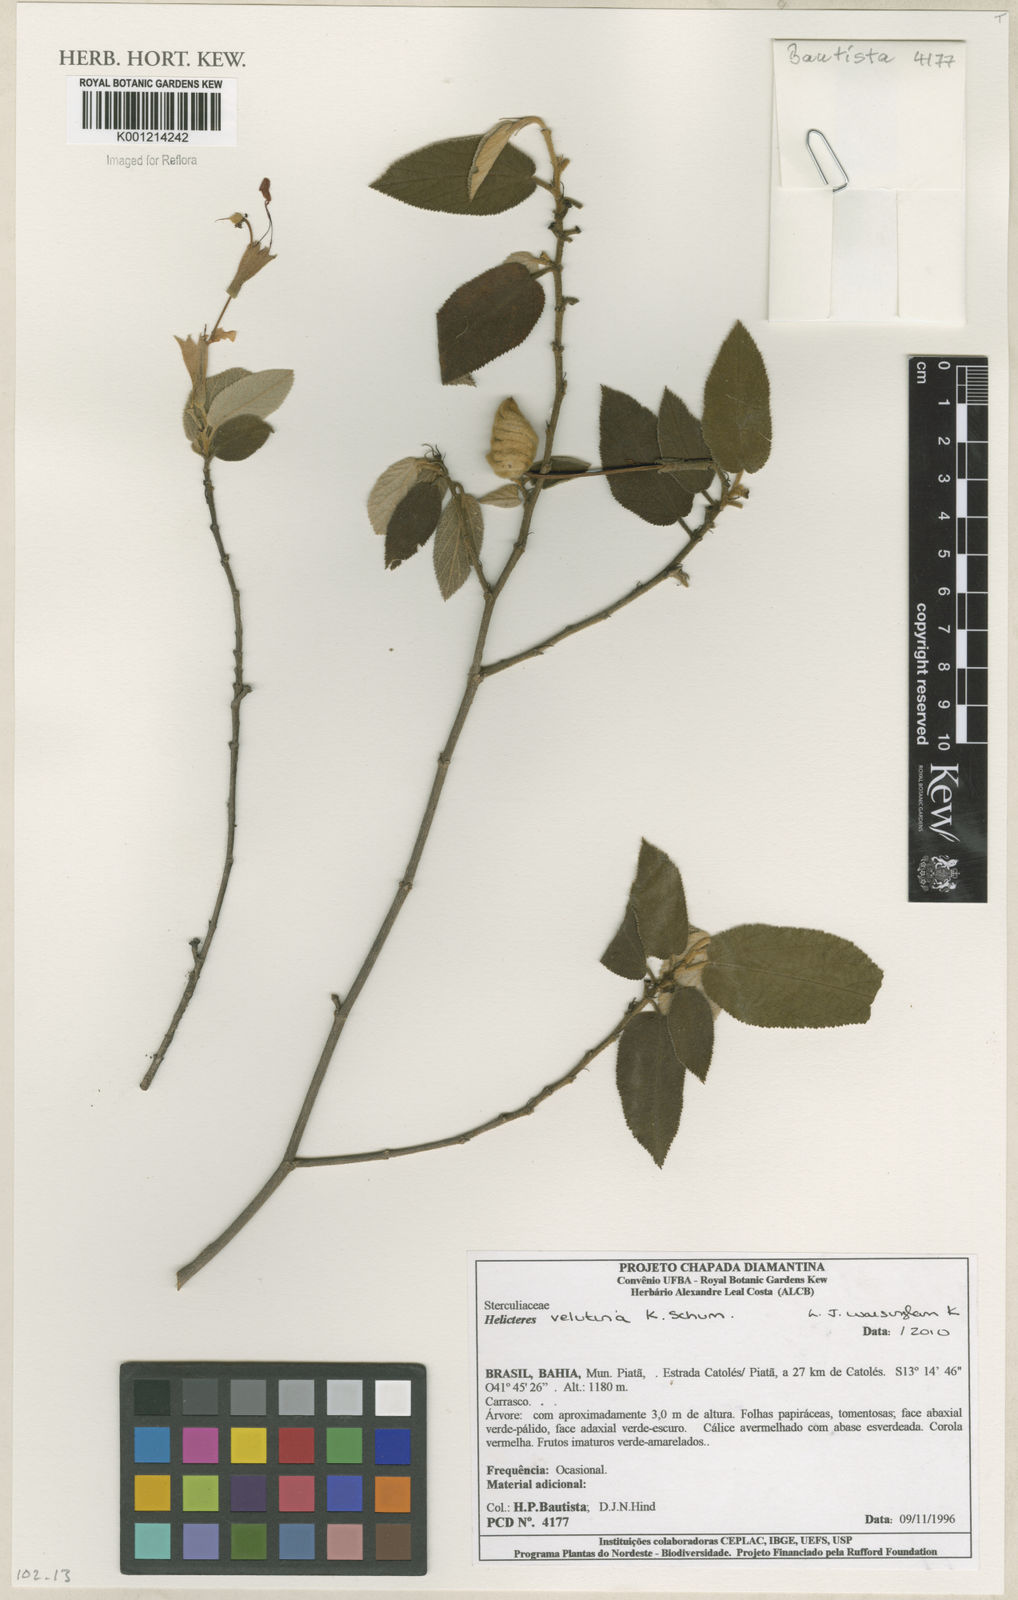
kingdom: Plantae
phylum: Tracheophyta
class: Magnoliopsida
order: Malvales
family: Malvaceae
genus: Helicteres
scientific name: Helicteres velutina
